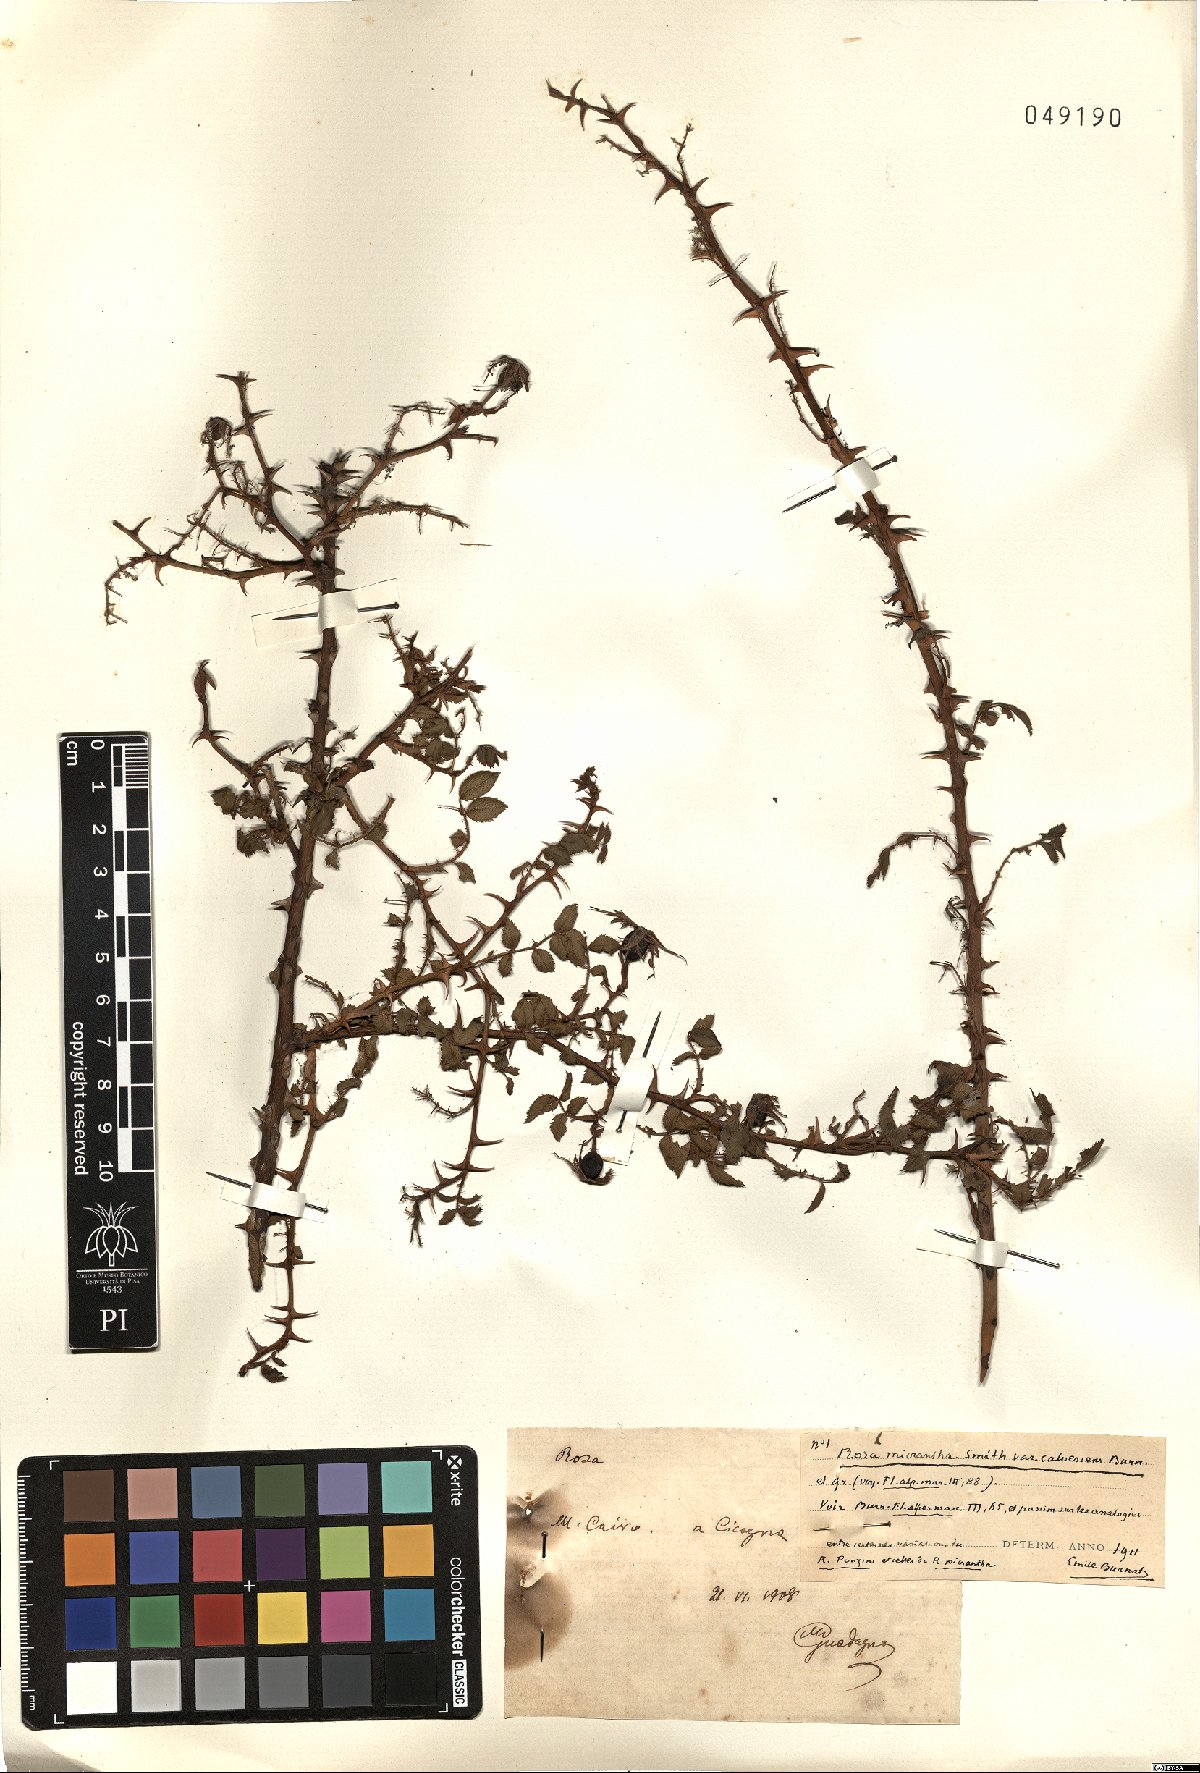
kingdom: Plantae
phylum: Tracheophyta
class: Magnoliopsida
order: Rosales
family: Rosaceae
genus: Rosa
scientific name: Rosa micrantha
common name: Small-flowered sweet-briar
